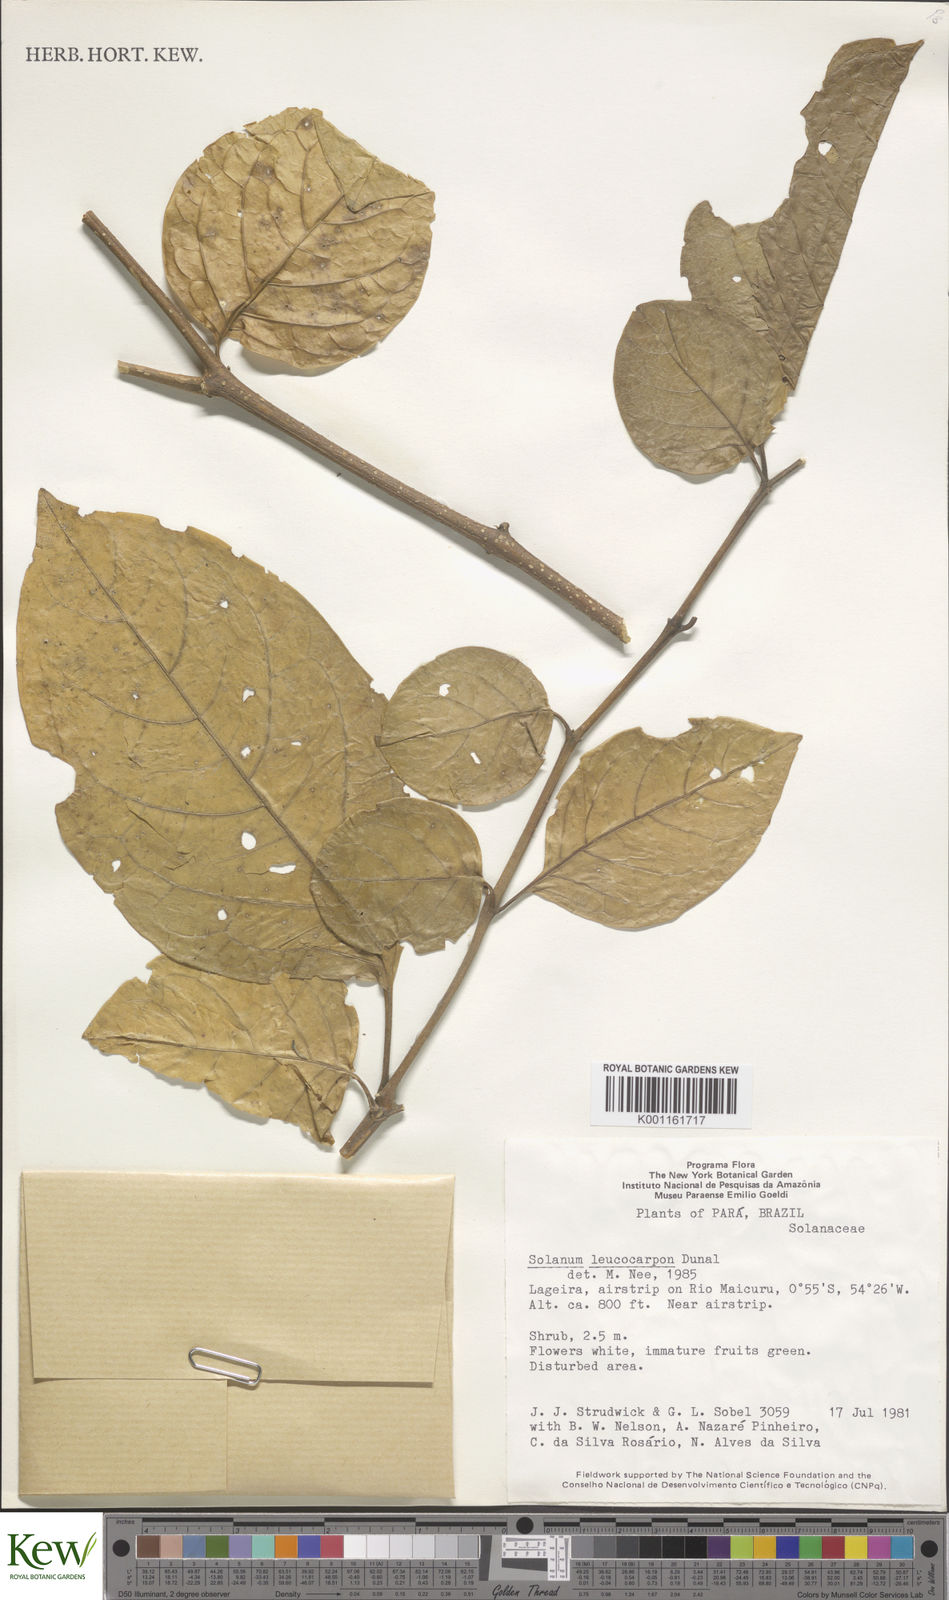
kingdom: Plantae
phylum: Tracheophyta
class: Magnoliopsida
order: Solanales
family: Solanaceae
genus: Solanum
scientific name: Solanum leucocarpon
